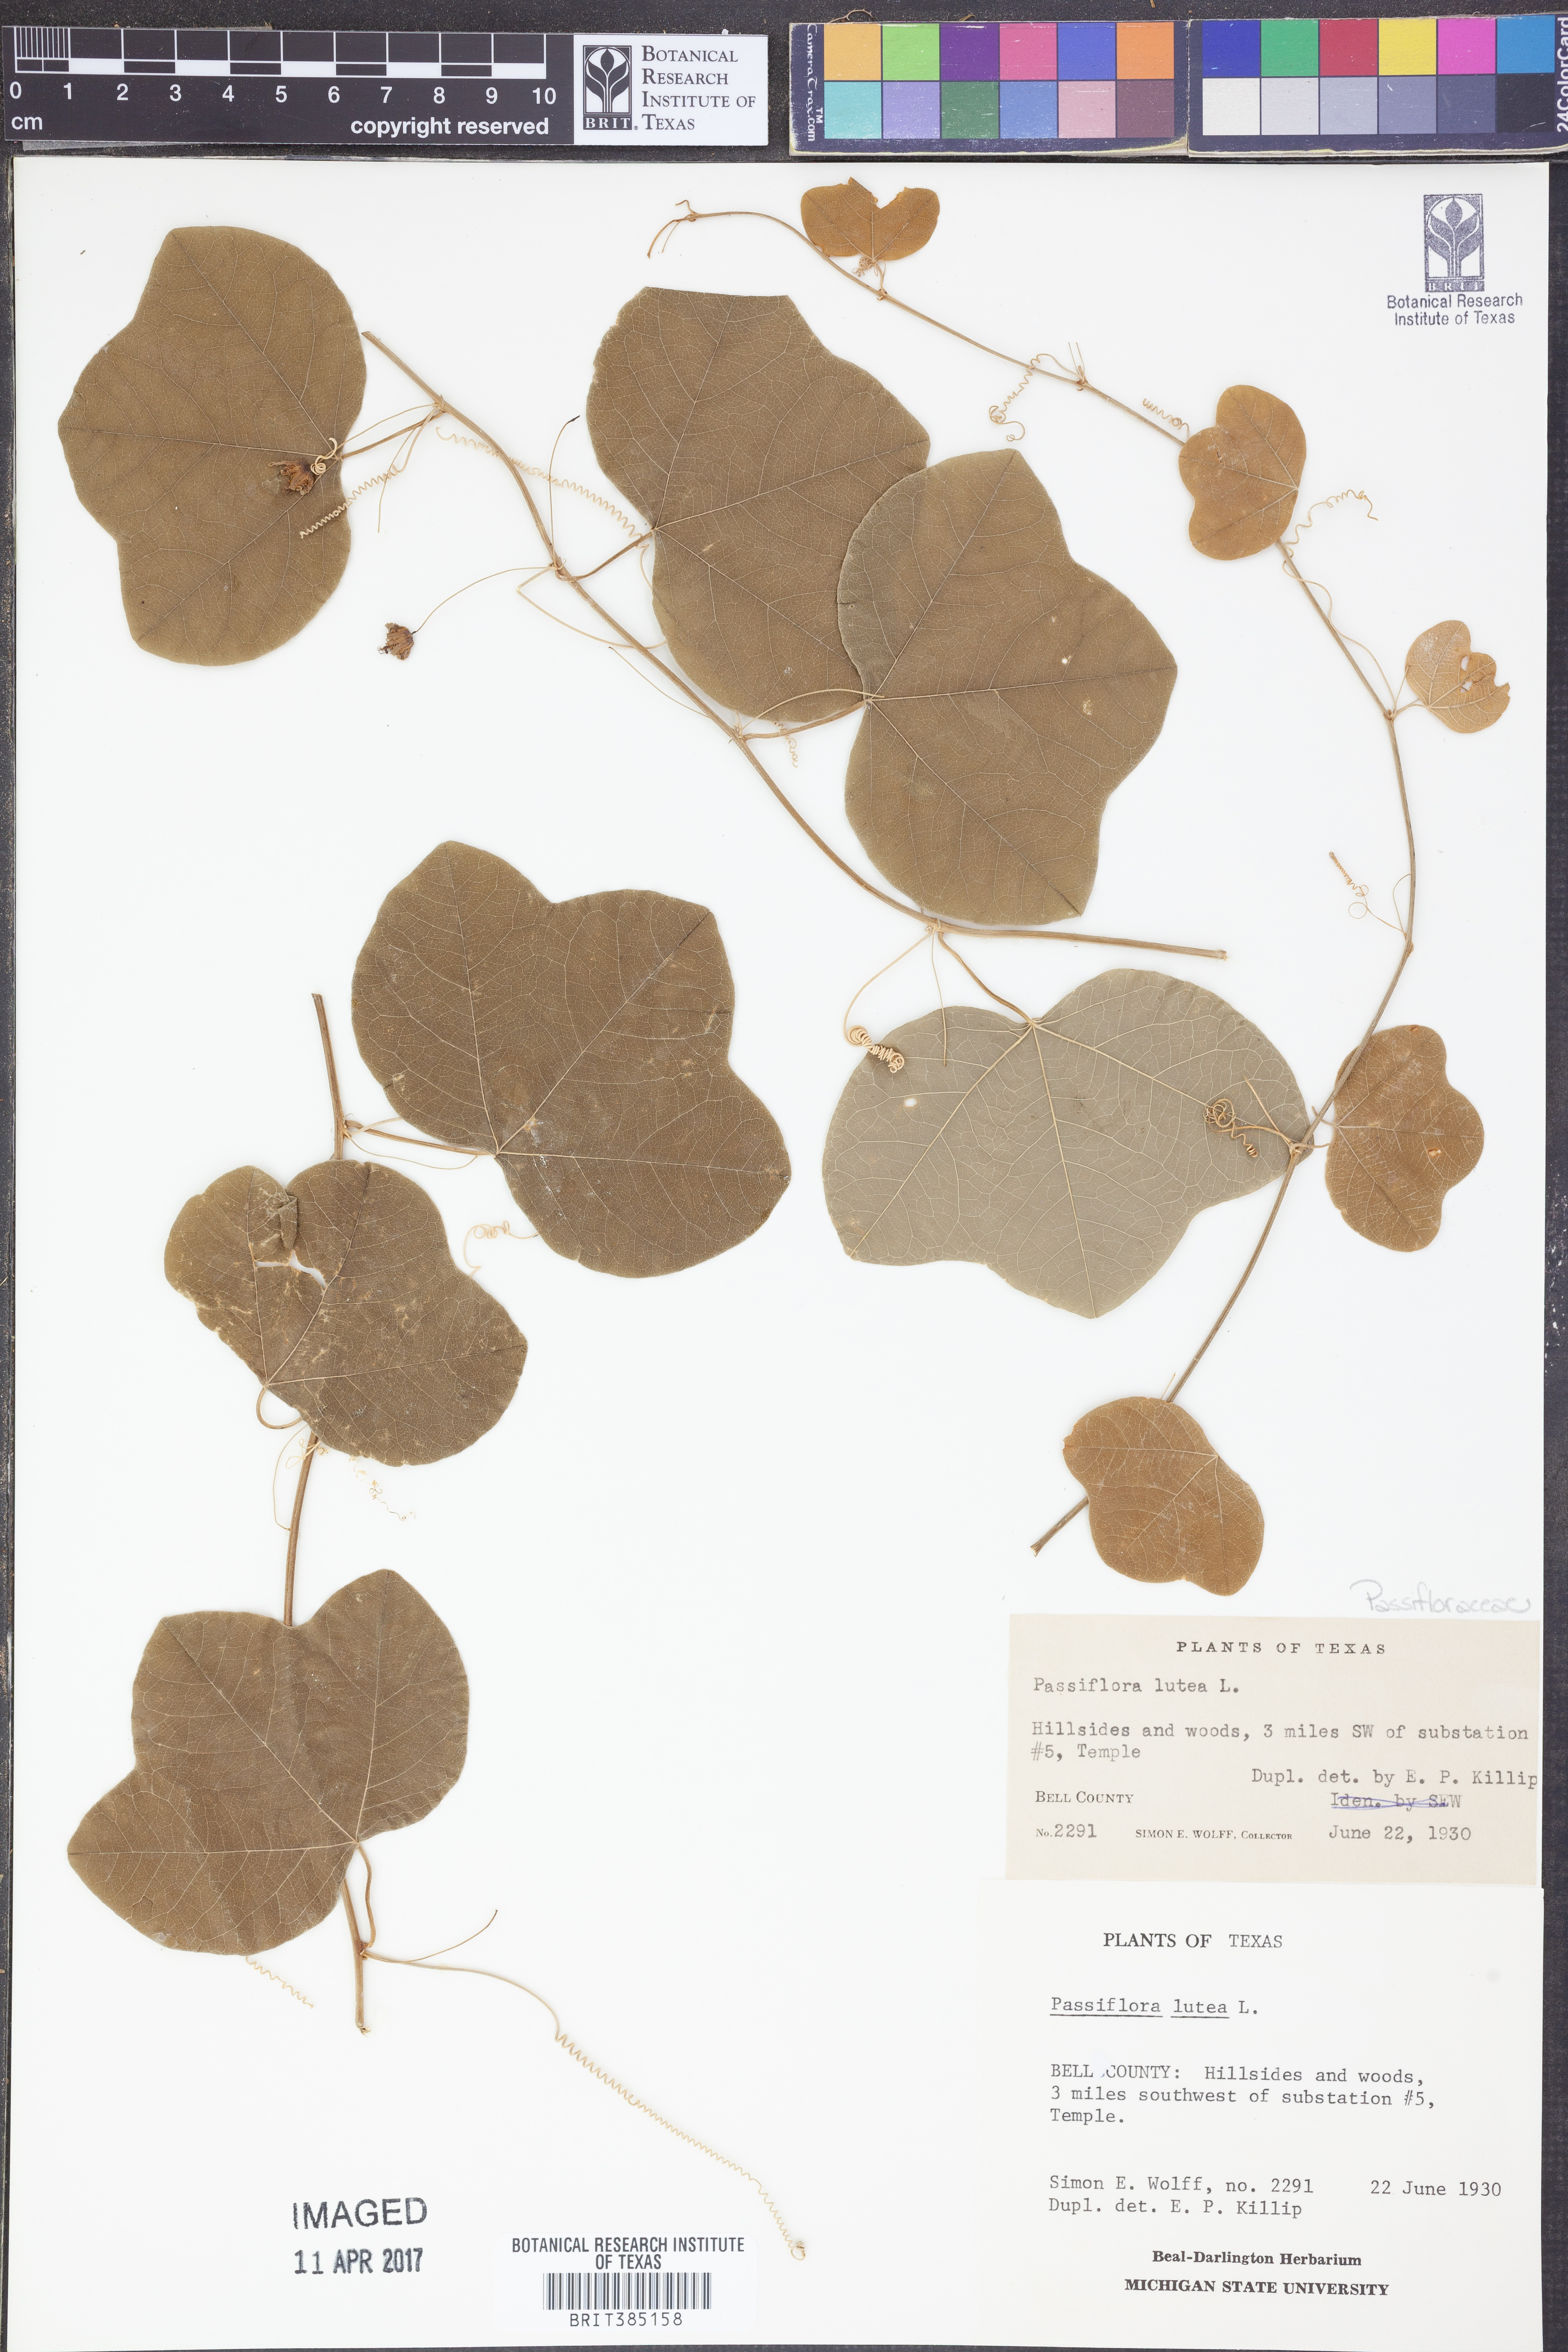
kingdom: Plantae
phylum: Tracheophyta
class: Magnoliopsida
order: Malpighiales
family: Passifloraceae
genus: Passiflora
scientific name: Passiflora lutea
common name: Yellow passionflower
